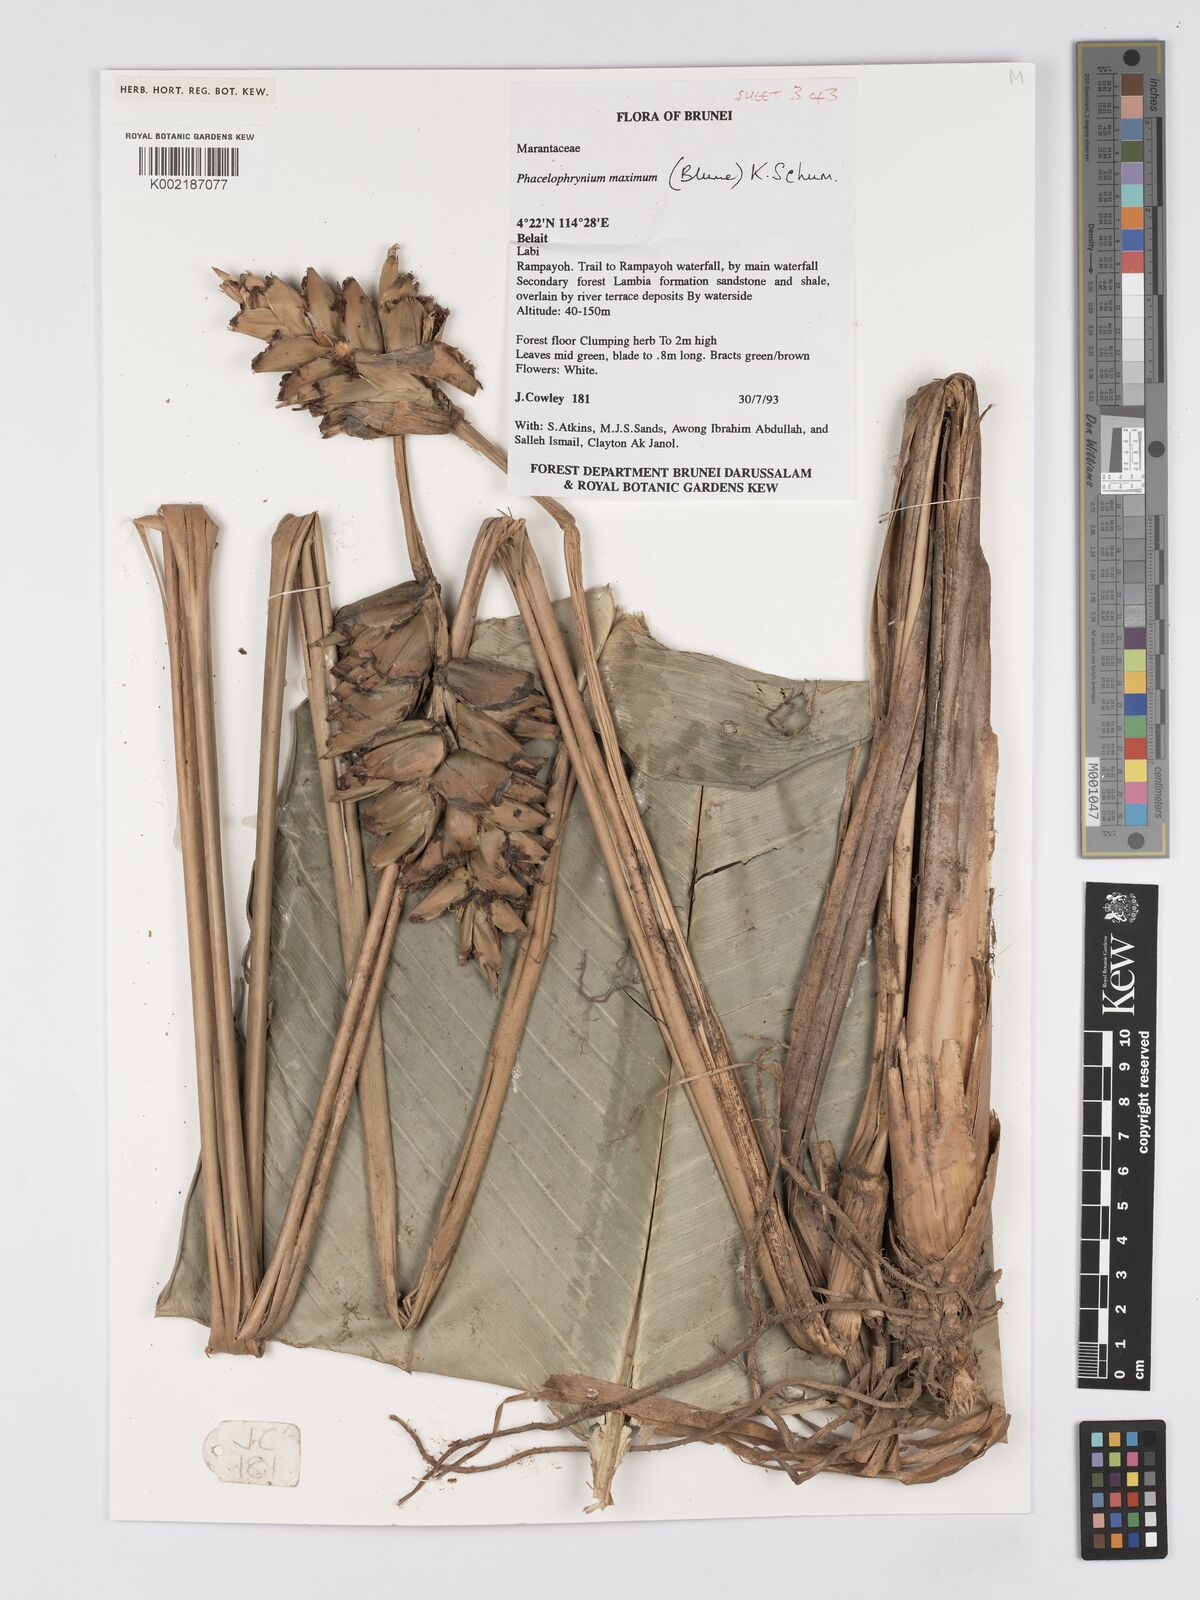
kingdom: Plantae
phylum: Tracheophyta
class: Liliopsida
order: Zingiberales
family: Marantaceae
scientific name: Marantaceae
